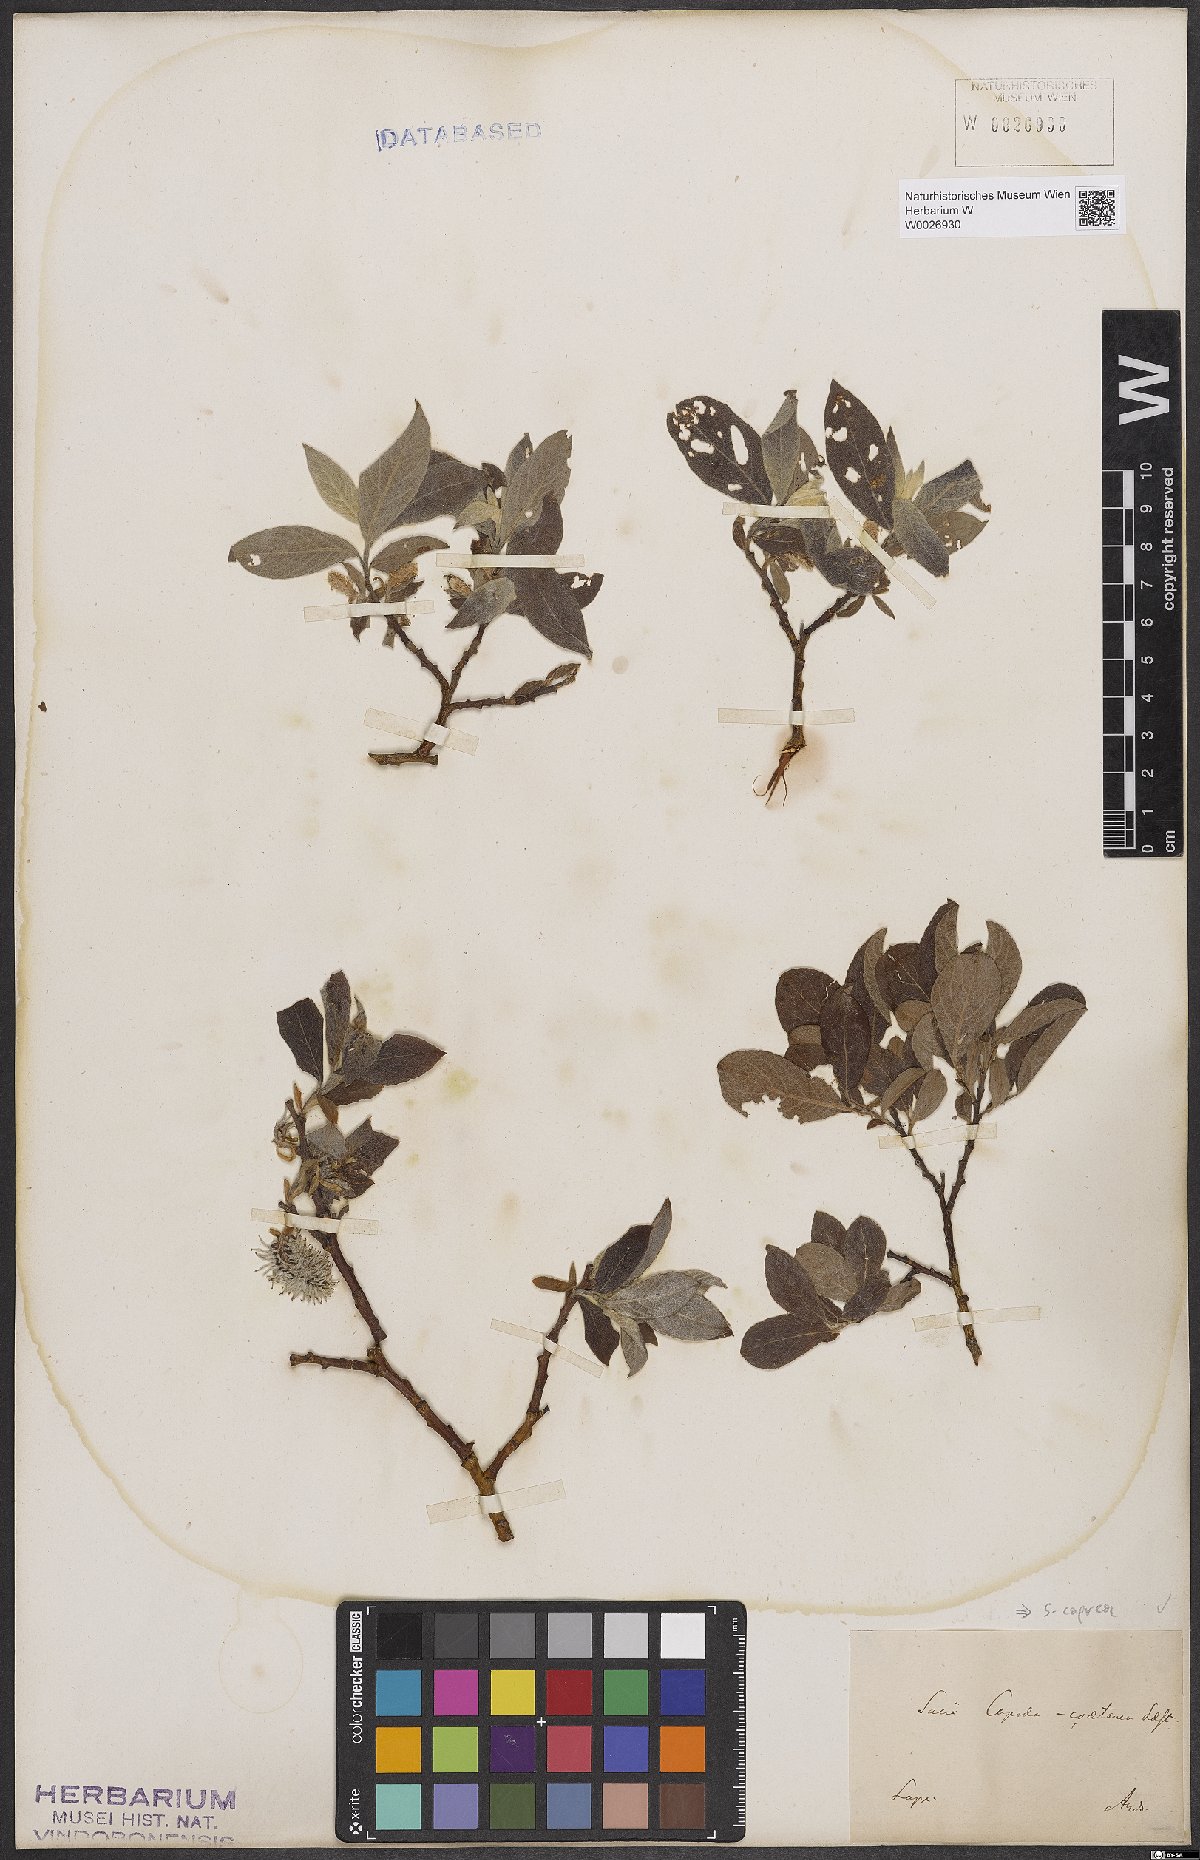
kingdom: Plantae
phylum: Tracheophyta
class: Magnoliopsida
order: Malpighiales
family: Salicaceae
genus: Salix
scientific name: Salix caprea
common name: Goat willow
